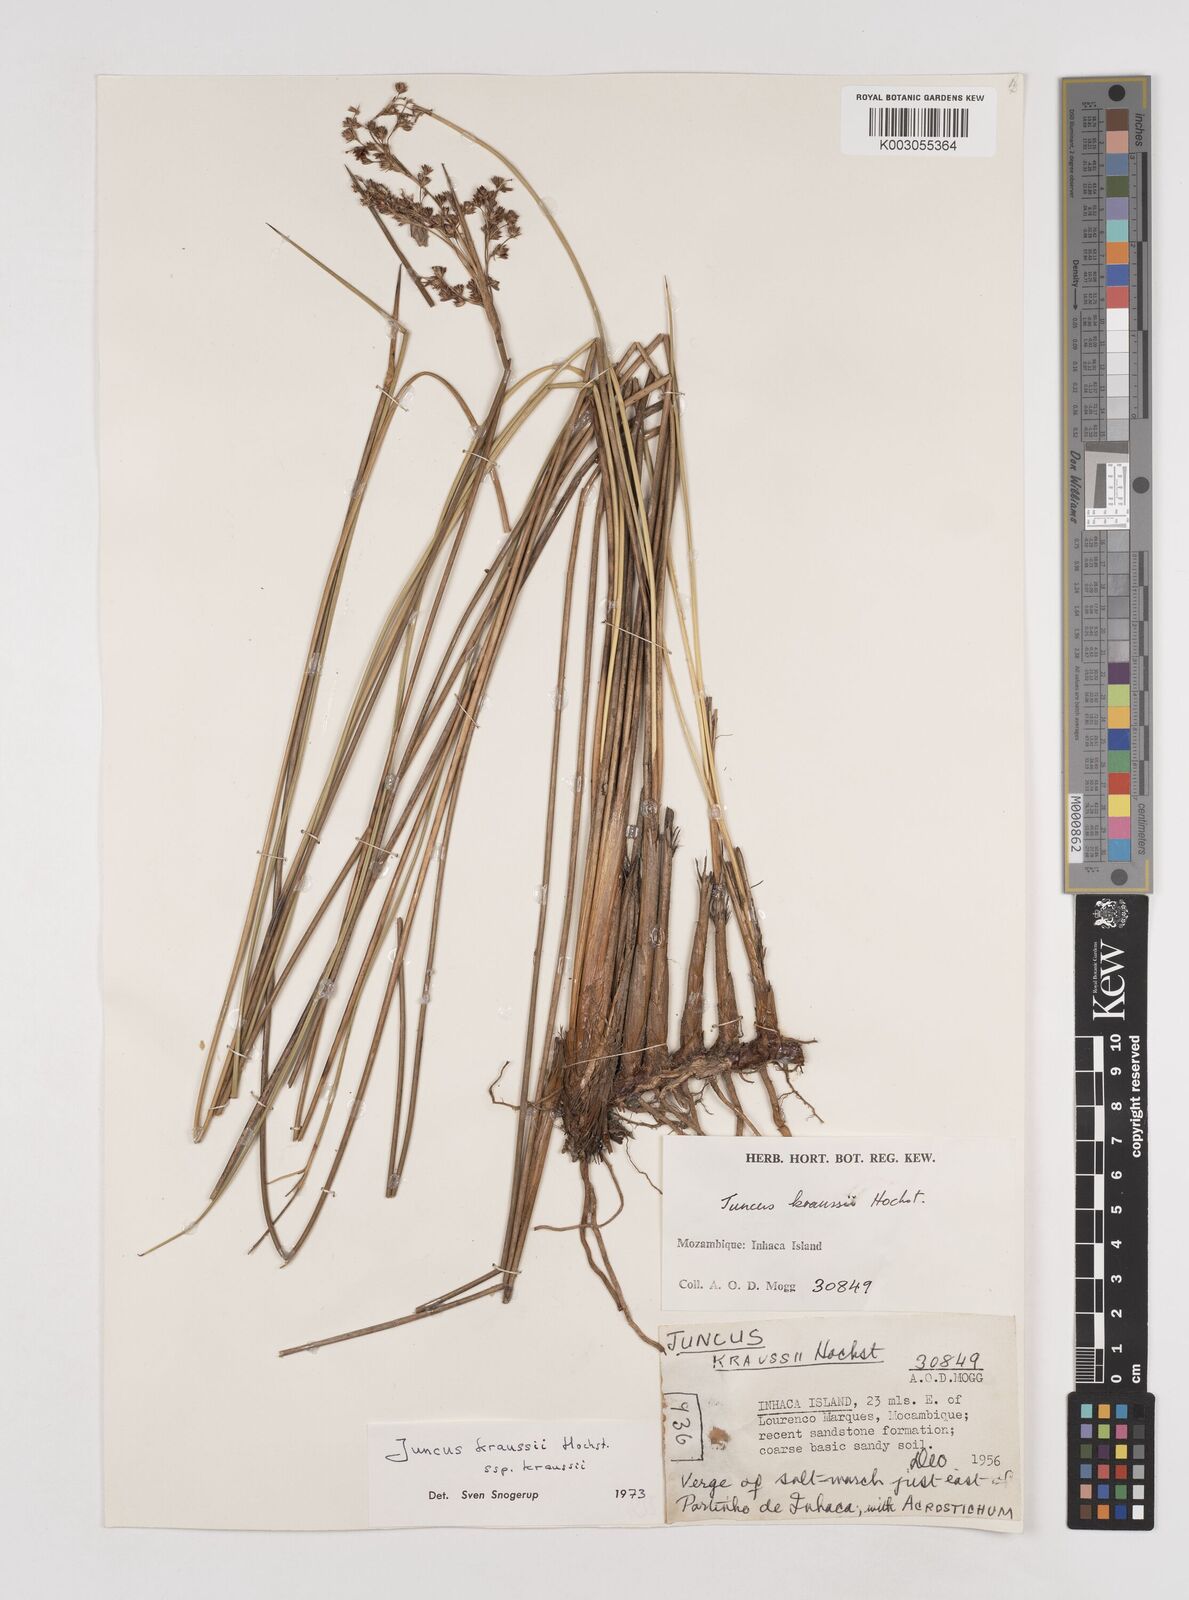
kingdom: Plantae
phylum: Tracheophyta
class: Liliopsida
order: Poales
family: Juncaceae
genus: Juncus
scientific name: Juncus kraussii
